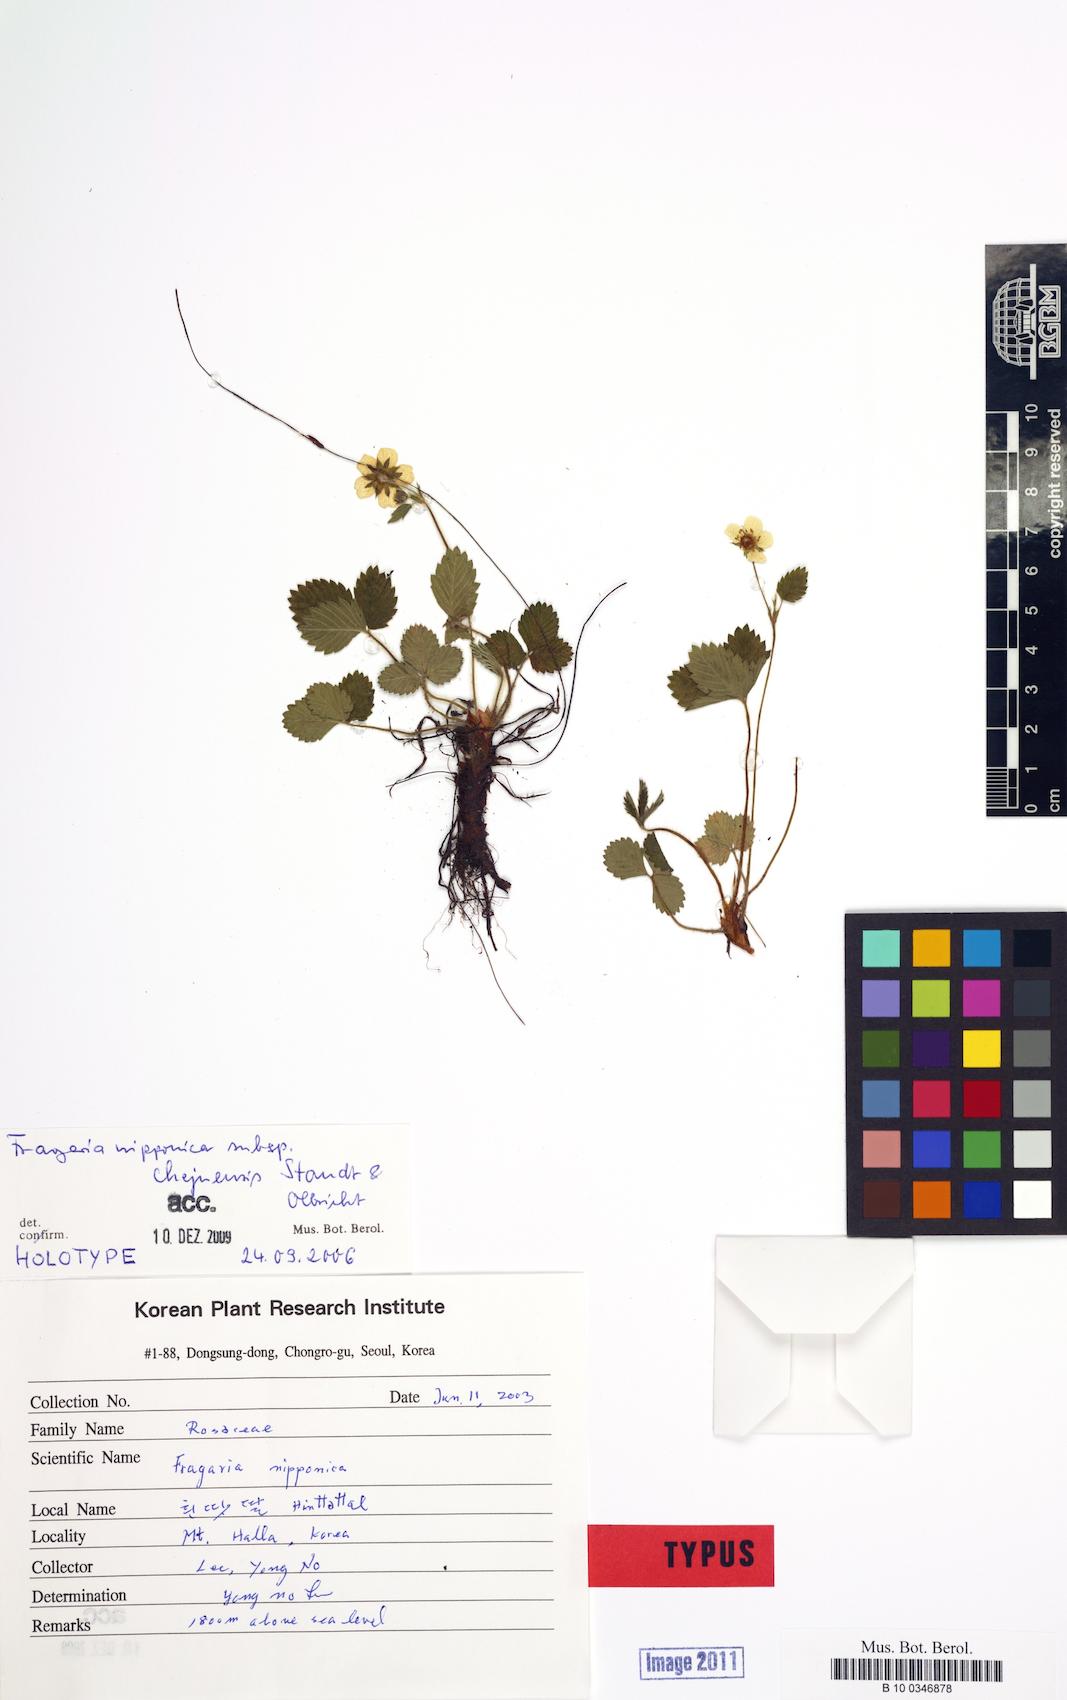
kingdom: Plantae
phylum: Tracheophyta
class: Magnoliopsida
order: Rosales
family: Rosaceae
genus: Fragaria
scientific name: Fragaria nipponica
